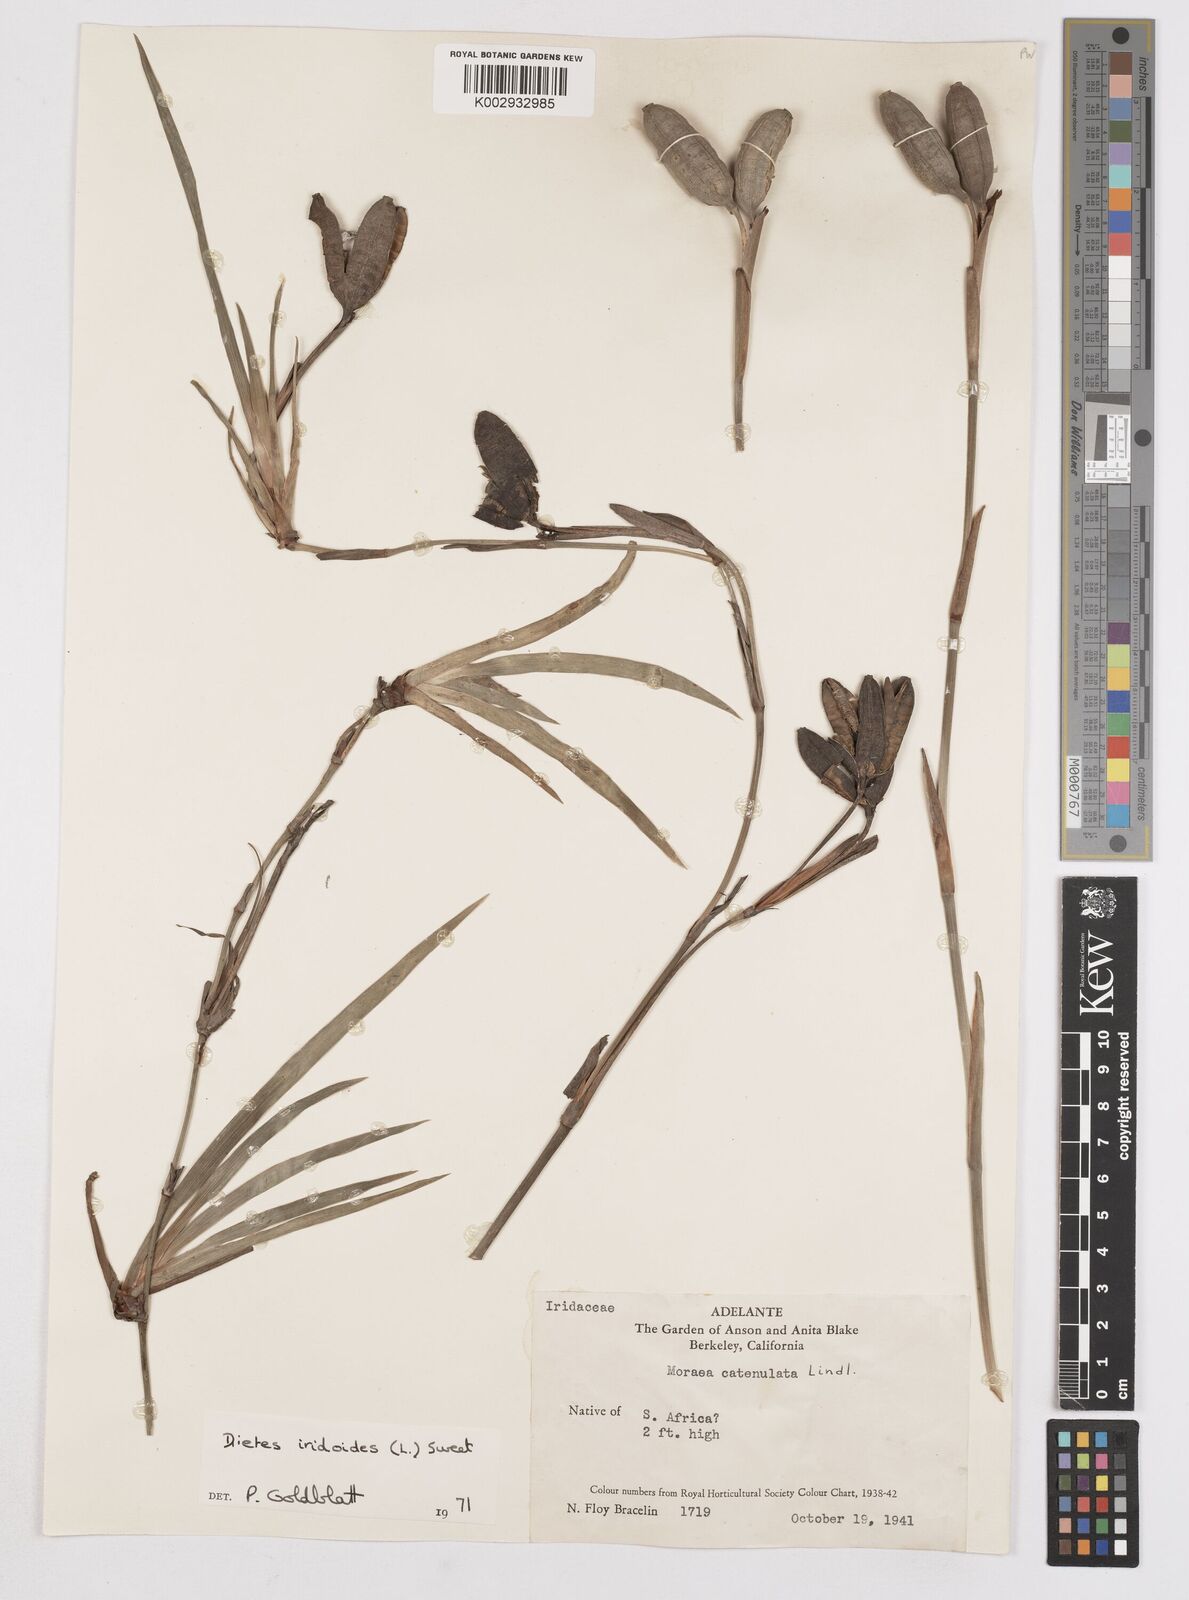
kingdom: Plantae
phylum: Tracheophyta
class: Liliopsida
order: Asparagales
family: Iridaceae
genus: Dietes
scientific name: Dietes iridioides
